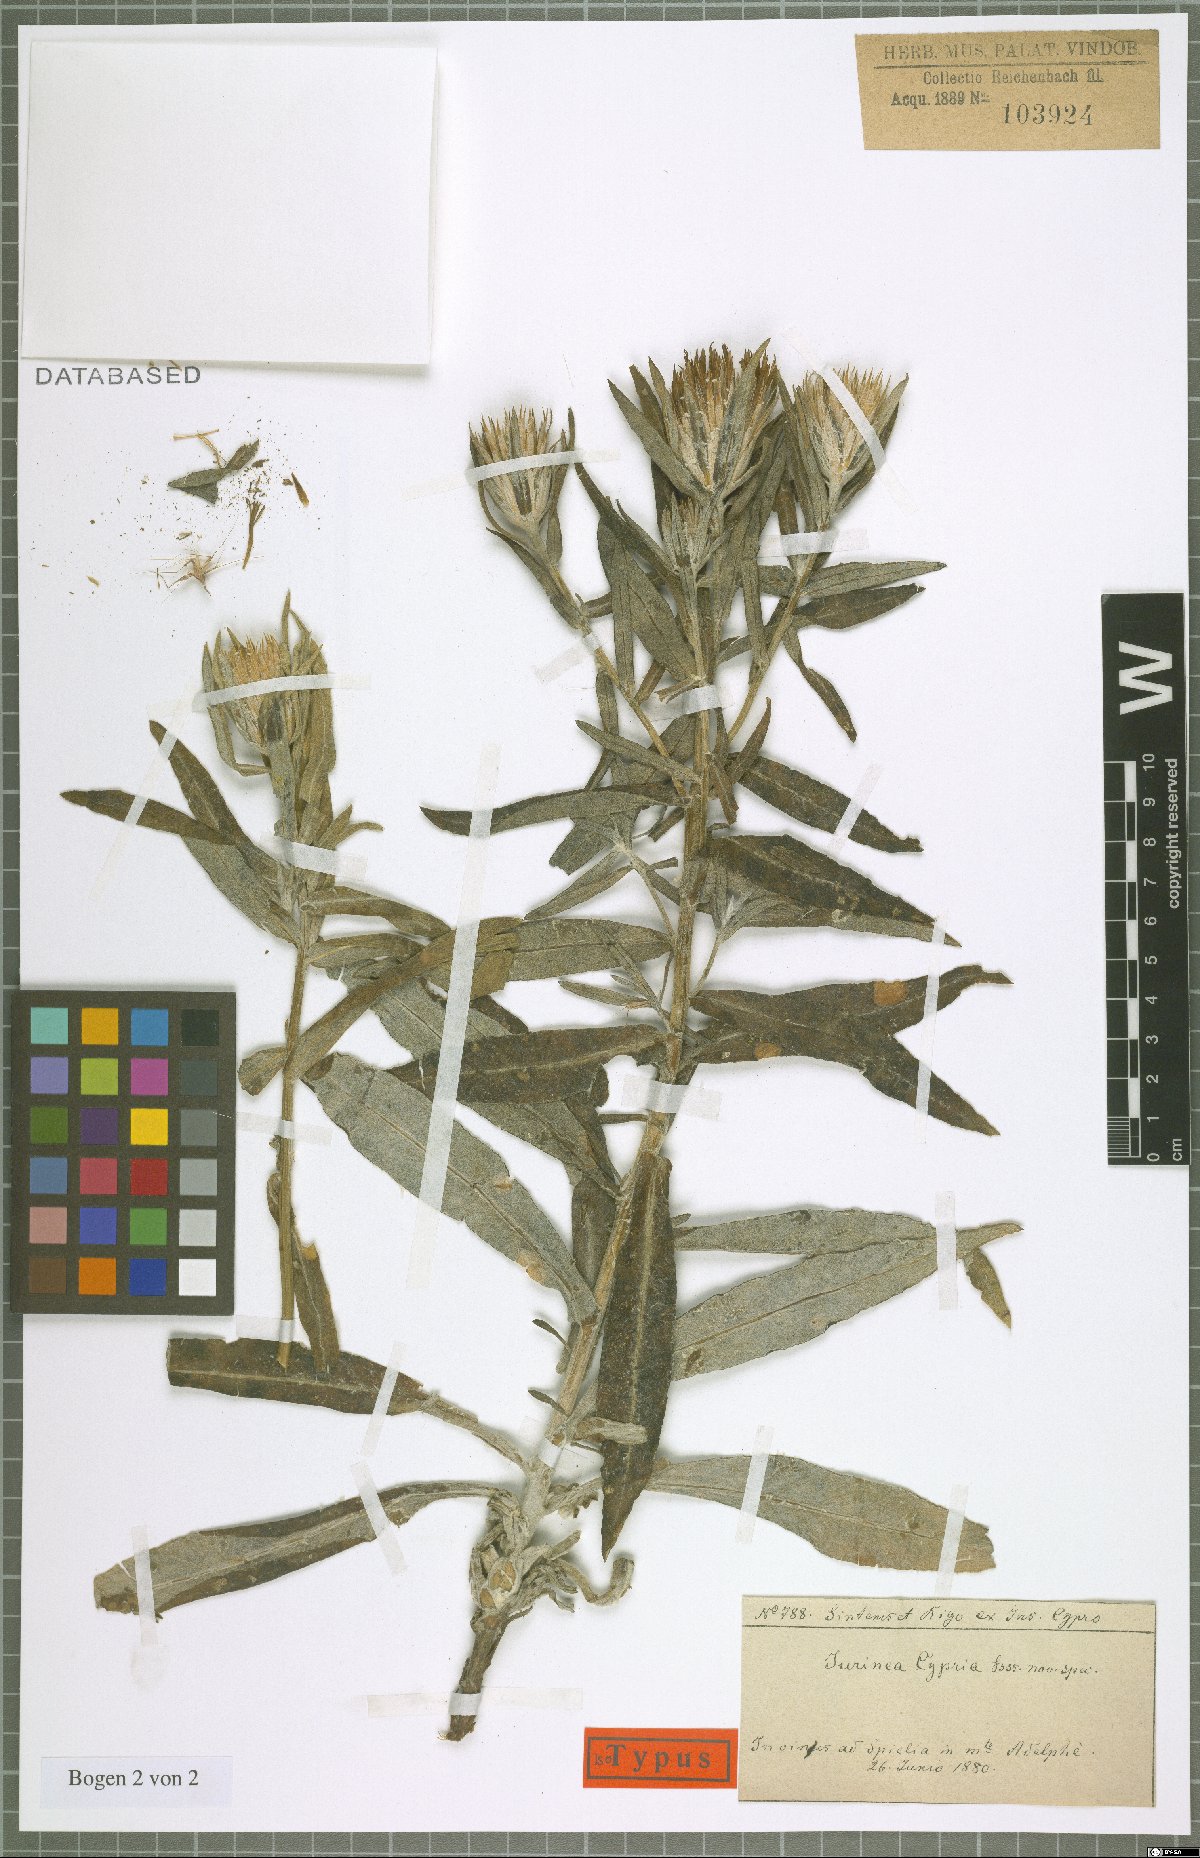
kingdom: Plantae
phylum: Tracheophyta
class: Magnoliopsida
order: Asterales
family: Asteraceae
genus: Jurinea
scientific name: Jurinea cypria
